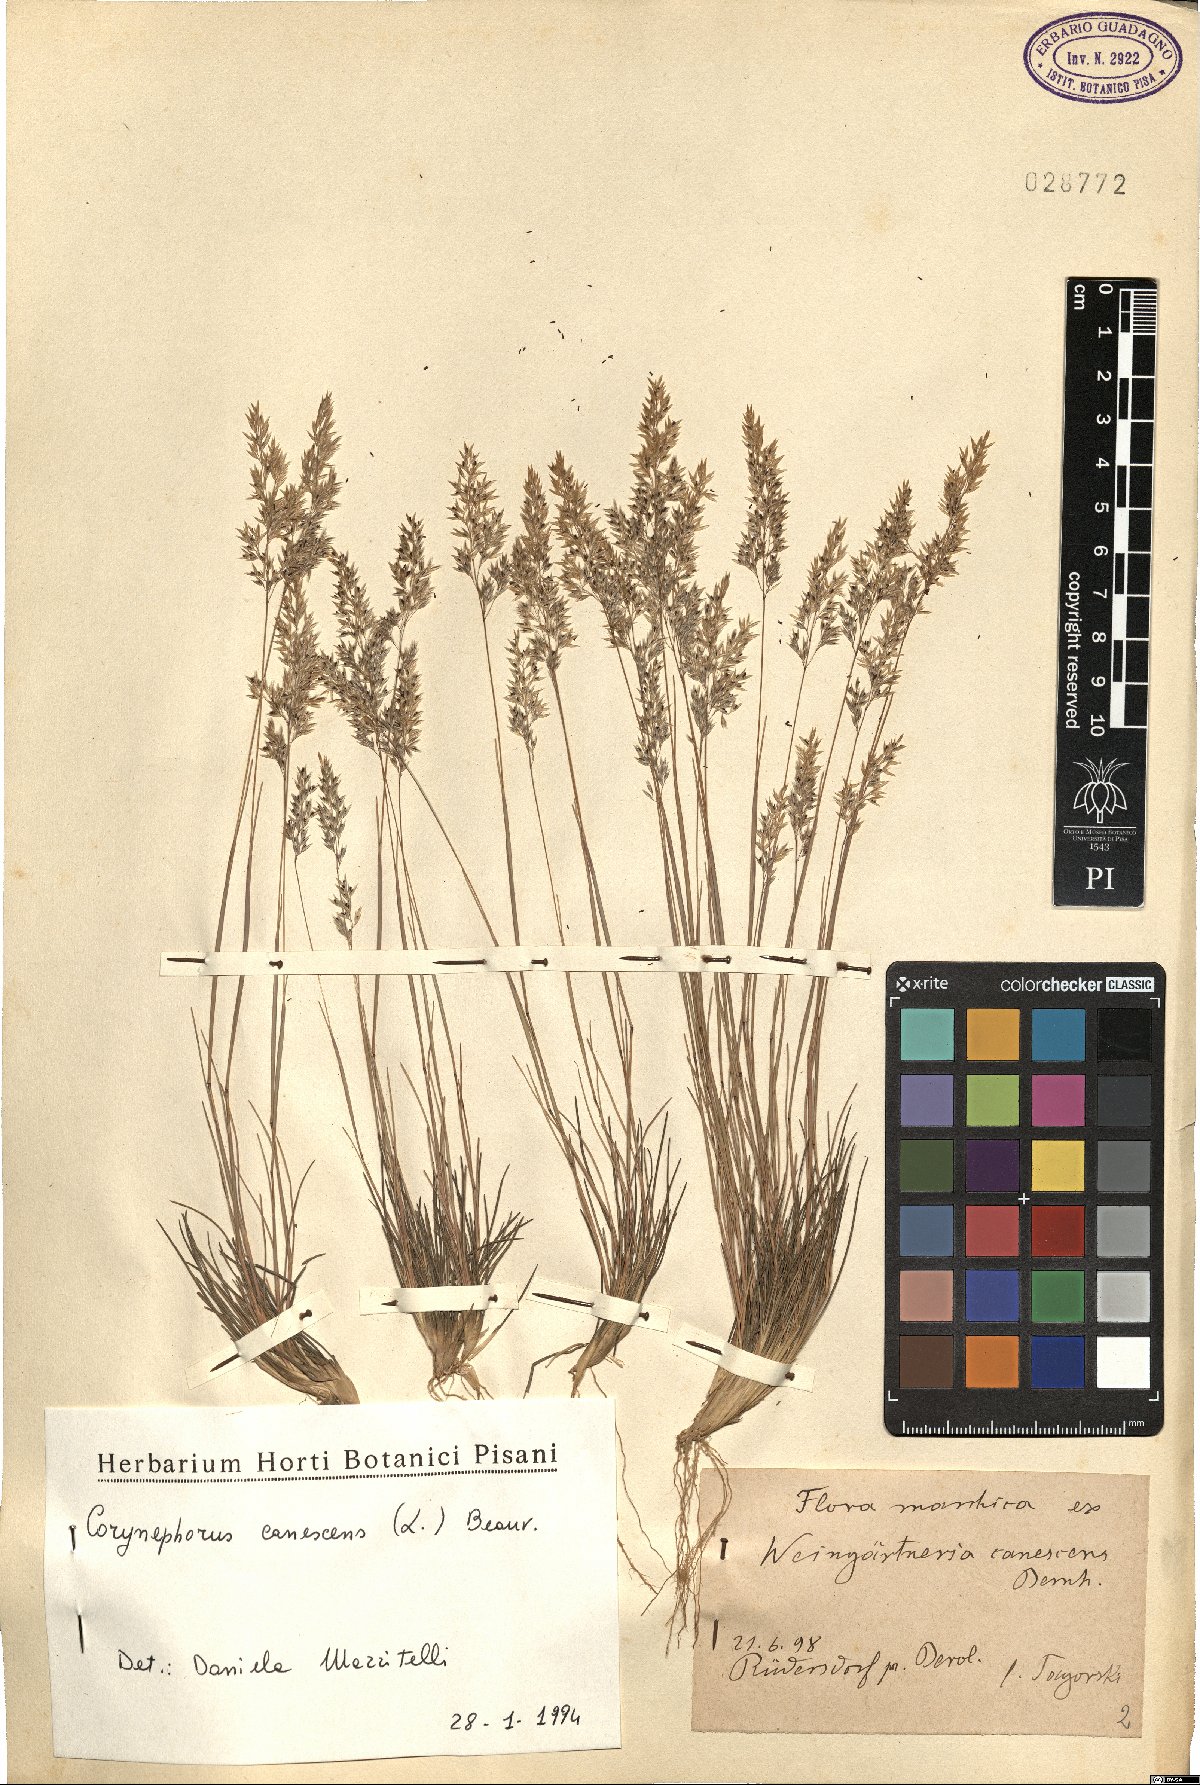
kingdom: Plantae
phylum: Tracheophyta
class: Liliopsida
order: Poales
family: Poaceae
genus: Corynephorus
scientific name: Corynephorus canescens
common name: Grey hair-grass
